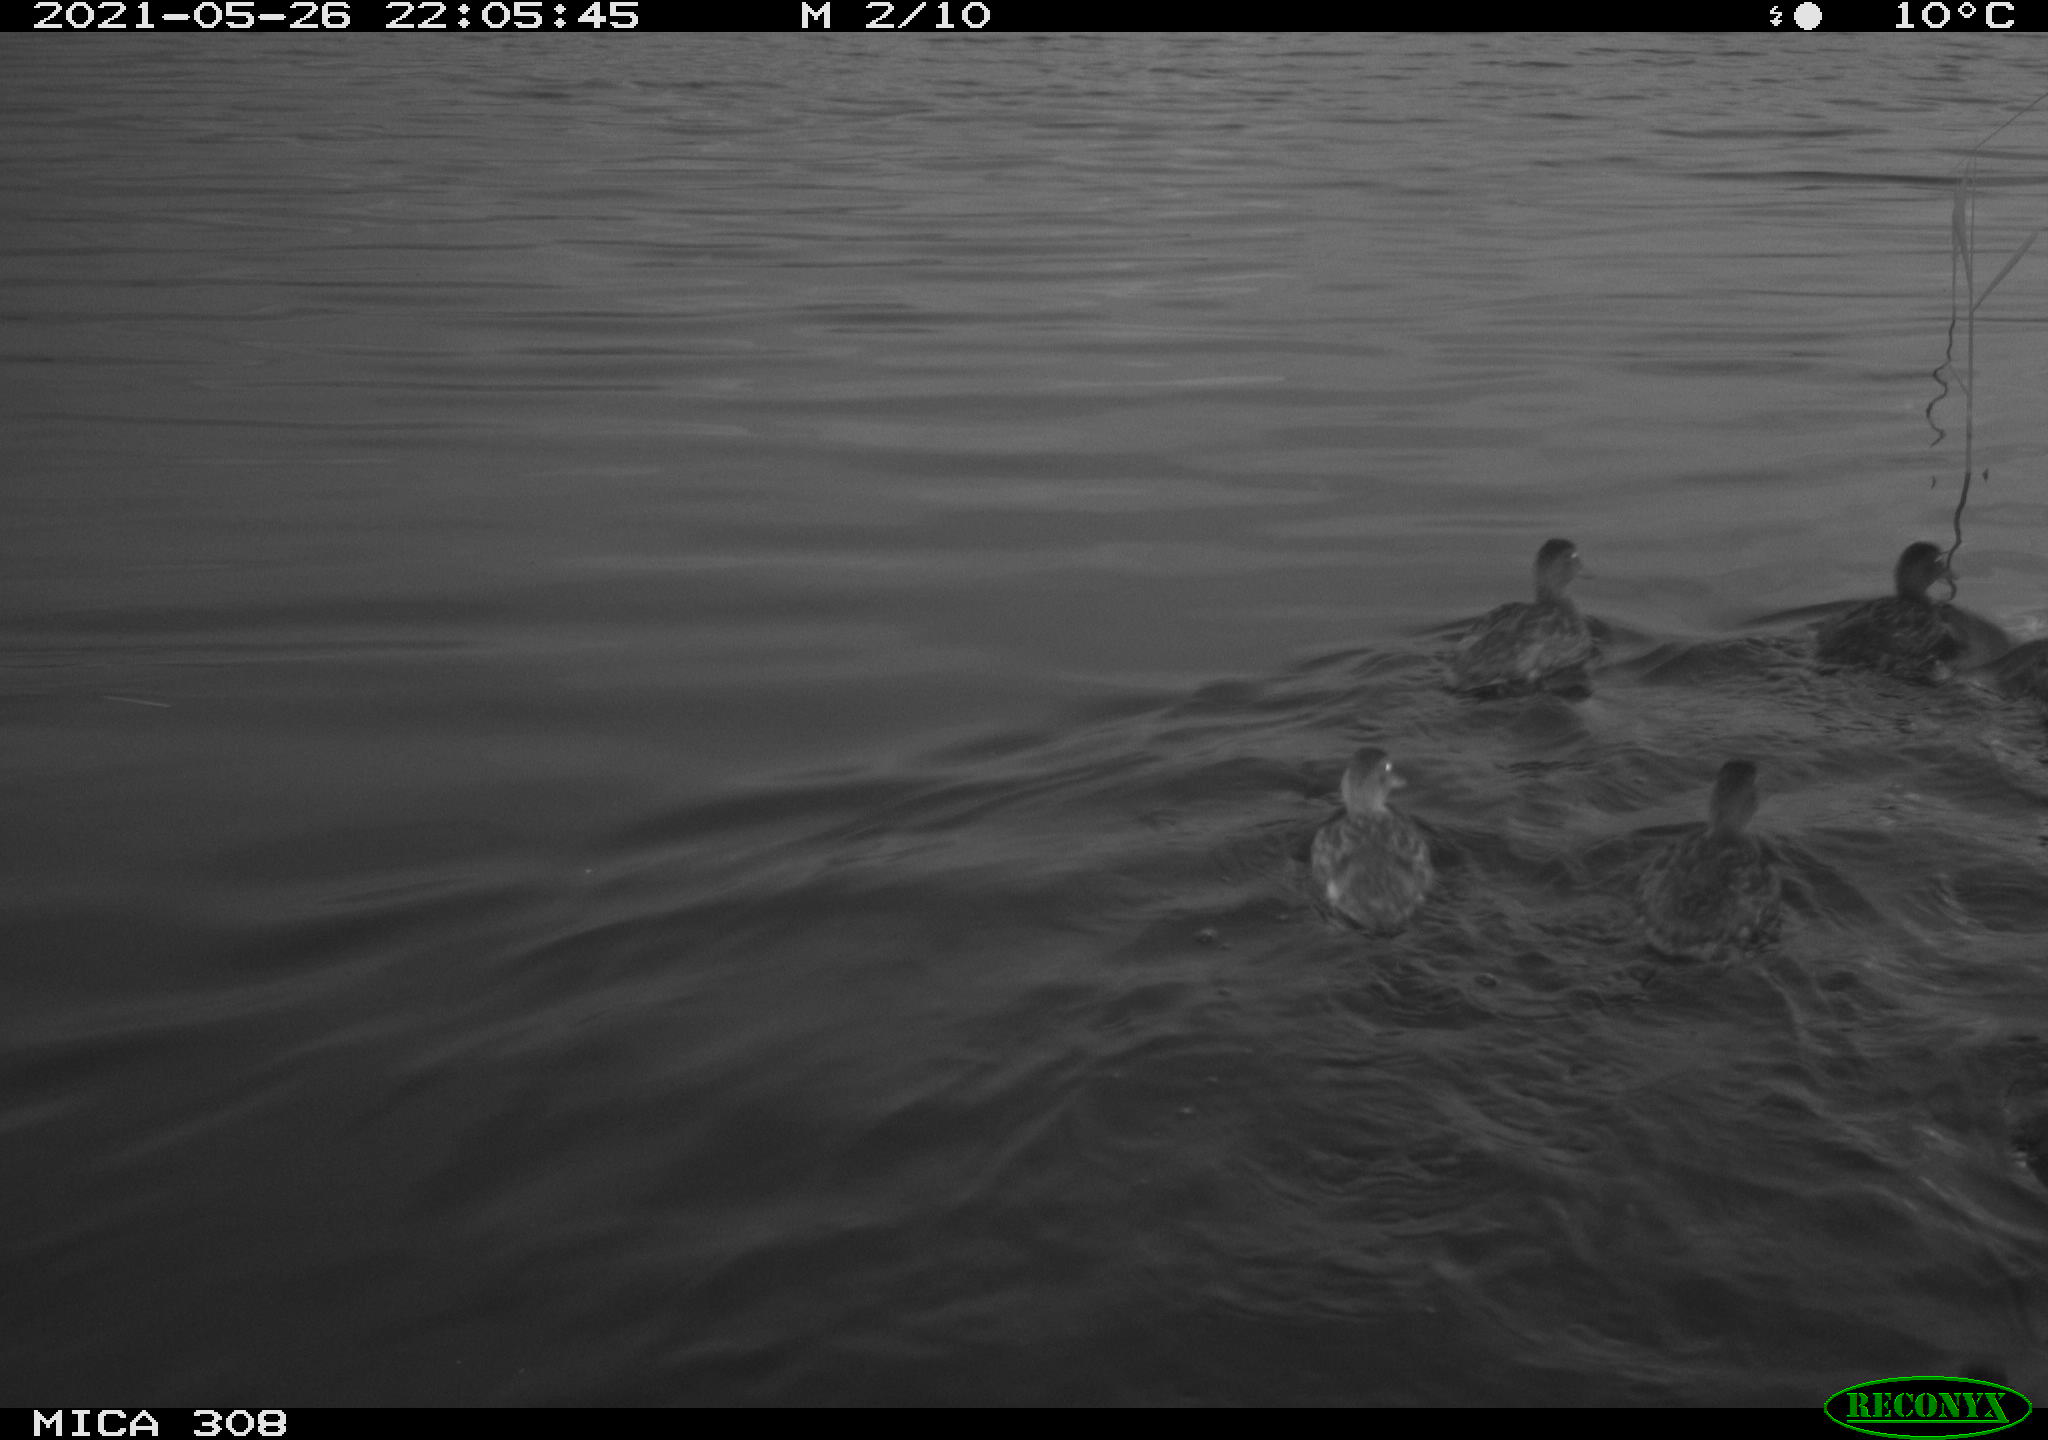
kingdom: Animalia
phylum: Chordata
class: Aves
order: Anseriformes
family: Anatidae
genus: Anas
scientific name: Anas platyrhynchos
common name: Mallard
